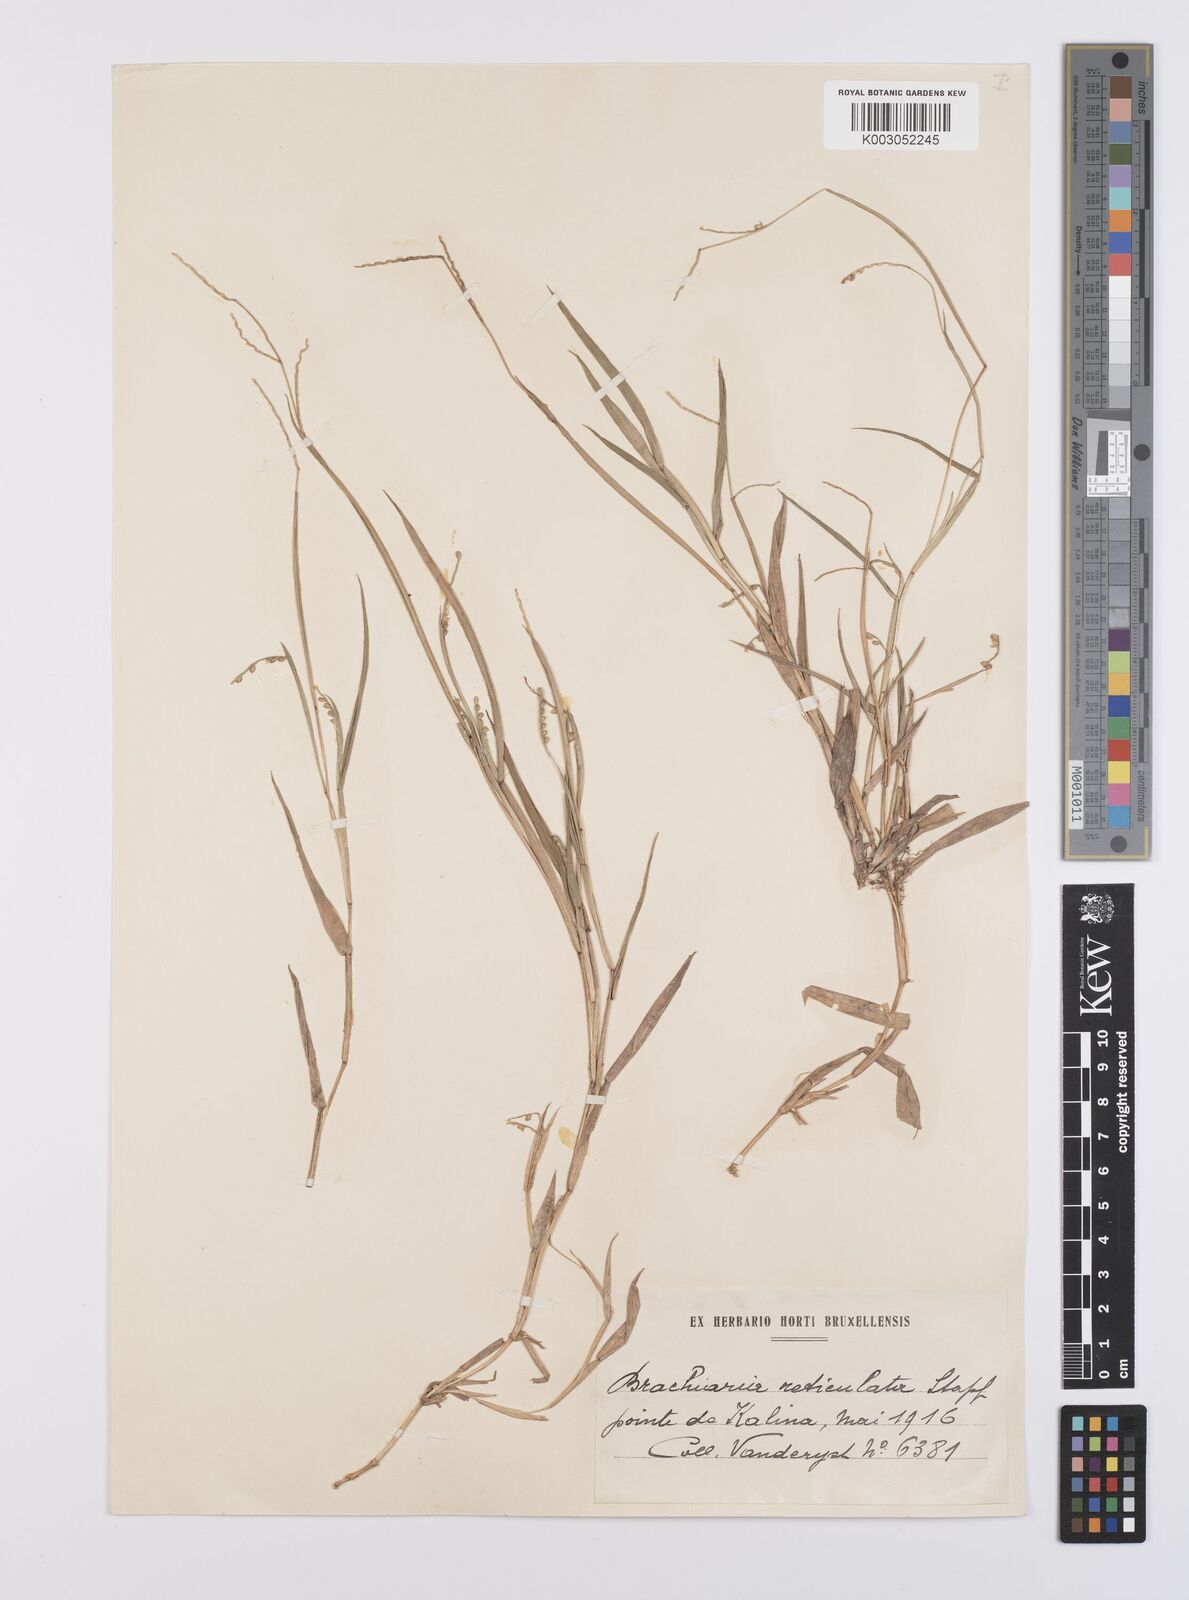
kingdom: Plantae
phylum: Tracheophyta
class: Liliopsida
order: Poales
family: Poaceae
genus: Urochloa
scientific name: Urochloa reticulata
